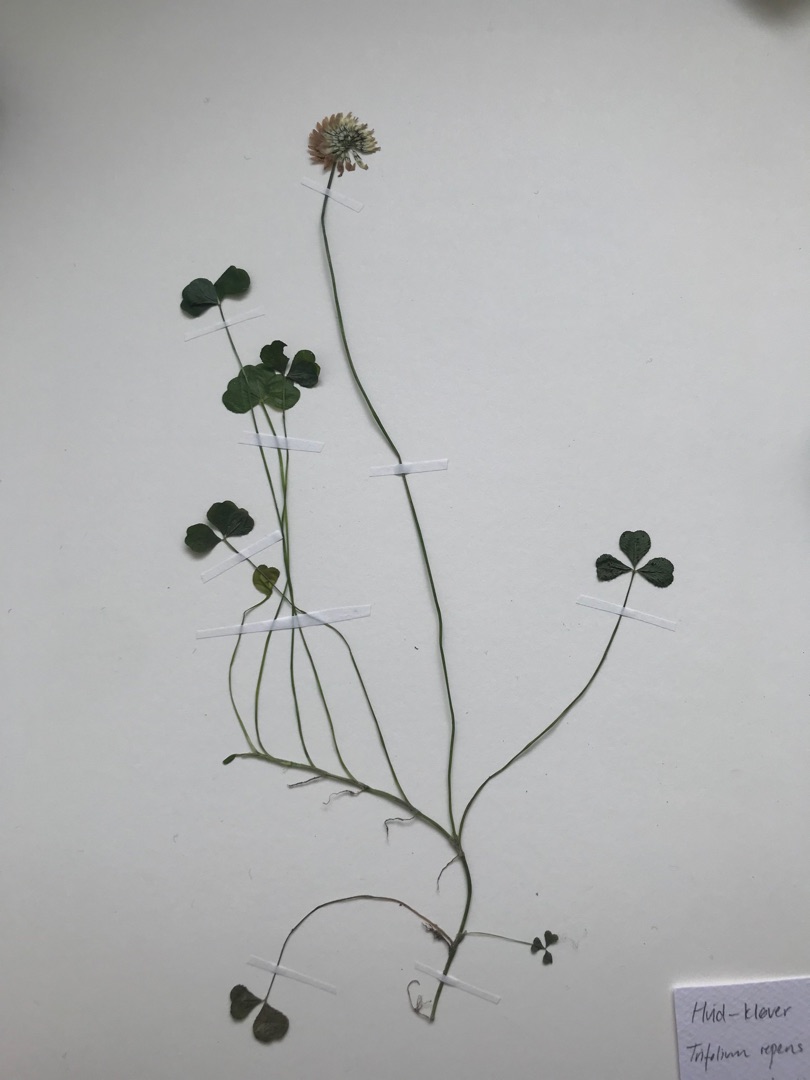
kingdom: Plantae
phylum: Tracheophyta
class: Magnoliopsida
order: Fabales
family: Fabaceae
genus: Trifolium
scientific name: Trifolium repens
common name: Hvid-kløver
